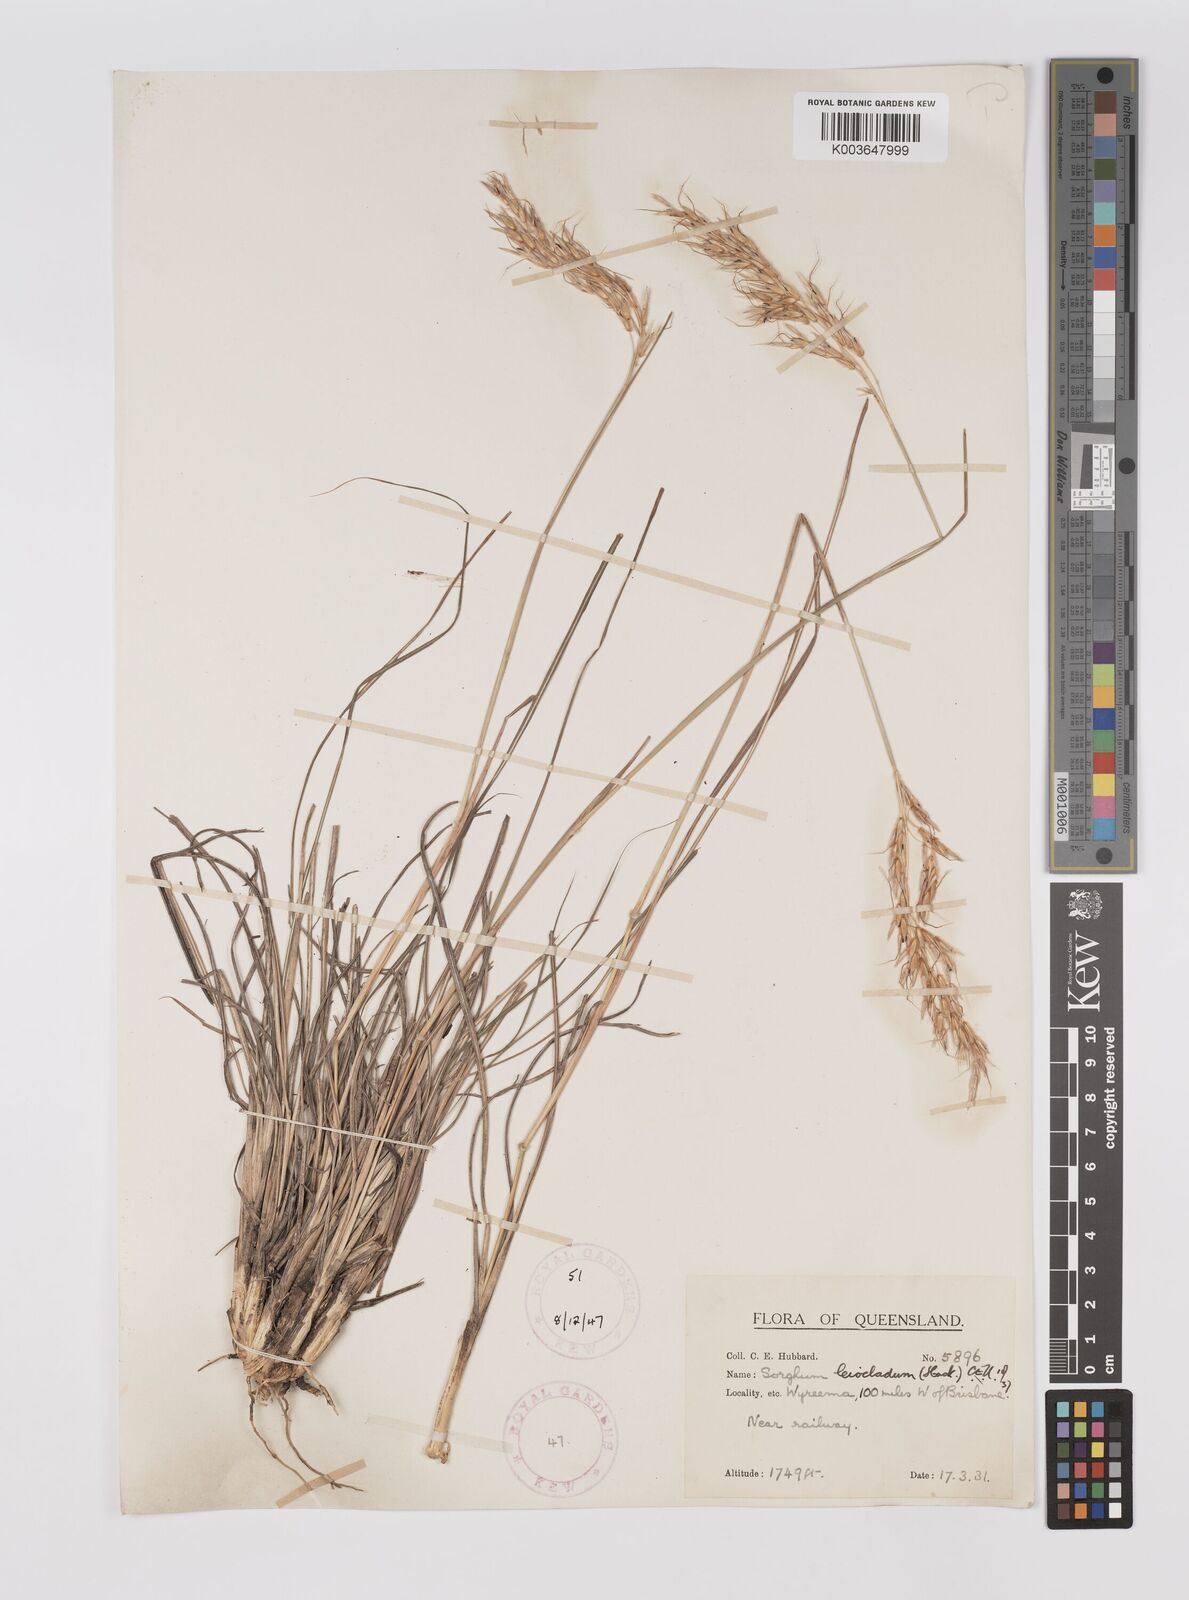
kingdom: Plantae
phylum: Tracheophyta
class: Liliopsida
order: Poales
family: Poaceae
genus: Sarga
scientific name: Sarga leioclada
